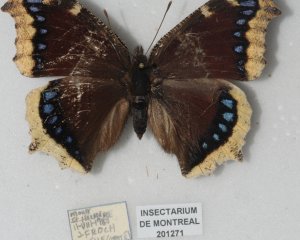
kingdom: Animalia
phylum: Arthropoda
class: Insecta
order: Lepidoptera
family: Nymphalidae
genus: Nymphalis
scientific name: Nymphalis antiopa
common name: Mourning Cloak
